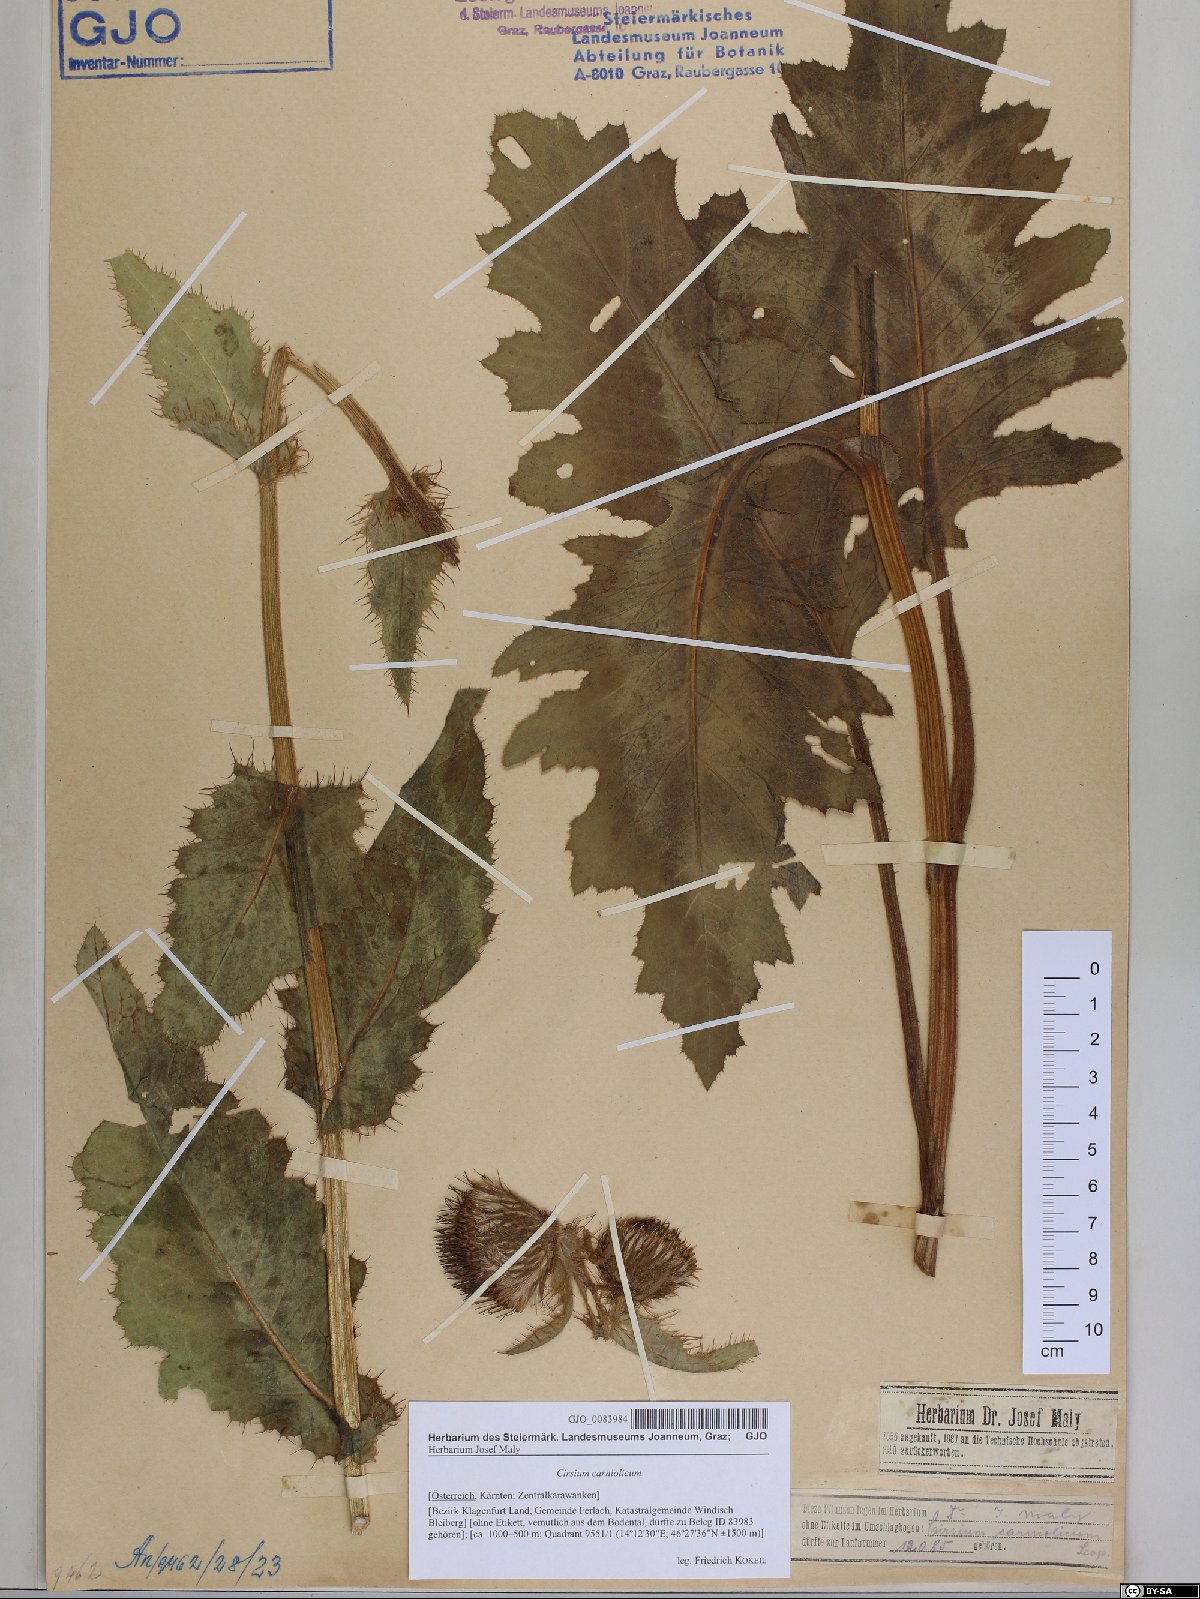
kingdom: Plantae
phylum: Tracheophyta
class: Magnoliopsida
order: Asterales
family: Asteraceae
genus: Cirsium
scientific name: Cirsium carniolicum
